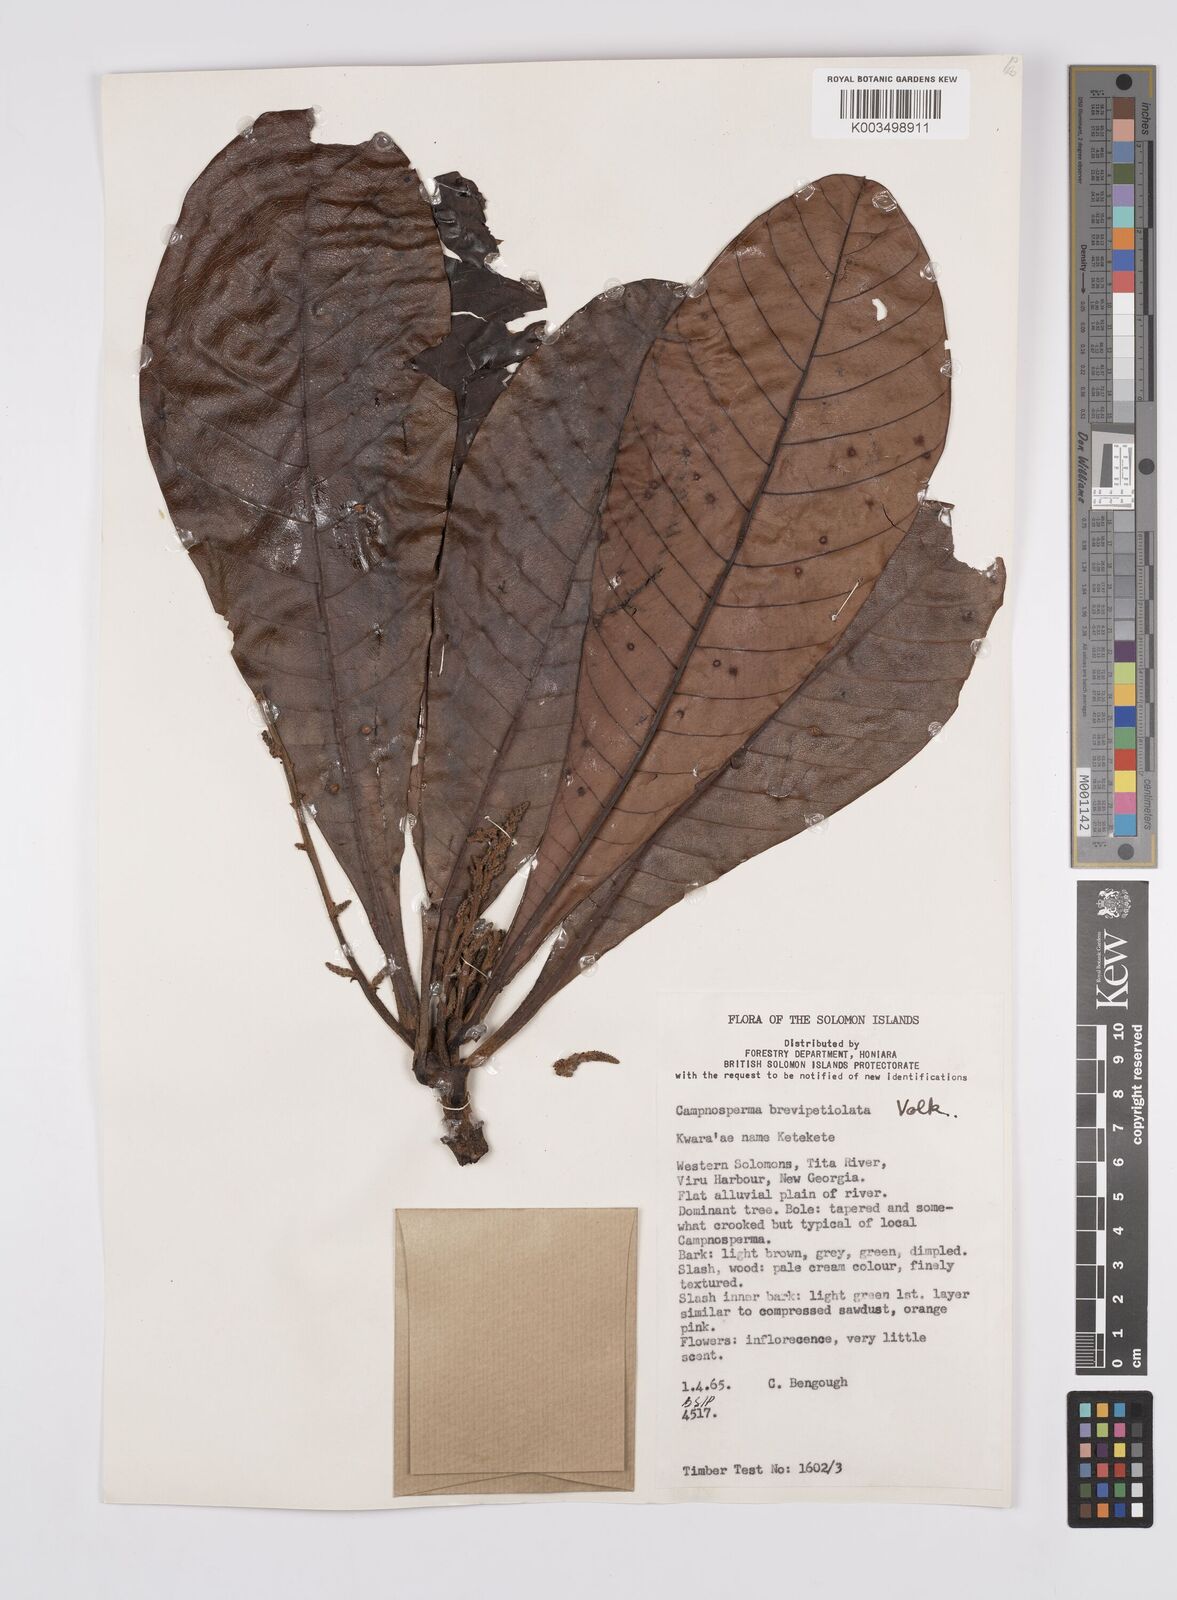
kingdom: Plantae
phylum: Tracheophyta
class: Magnoliopsida
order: Sapindales
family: Anacardiaceae
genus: Campnosperma
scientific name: Campnosperma brevipetiolatum
